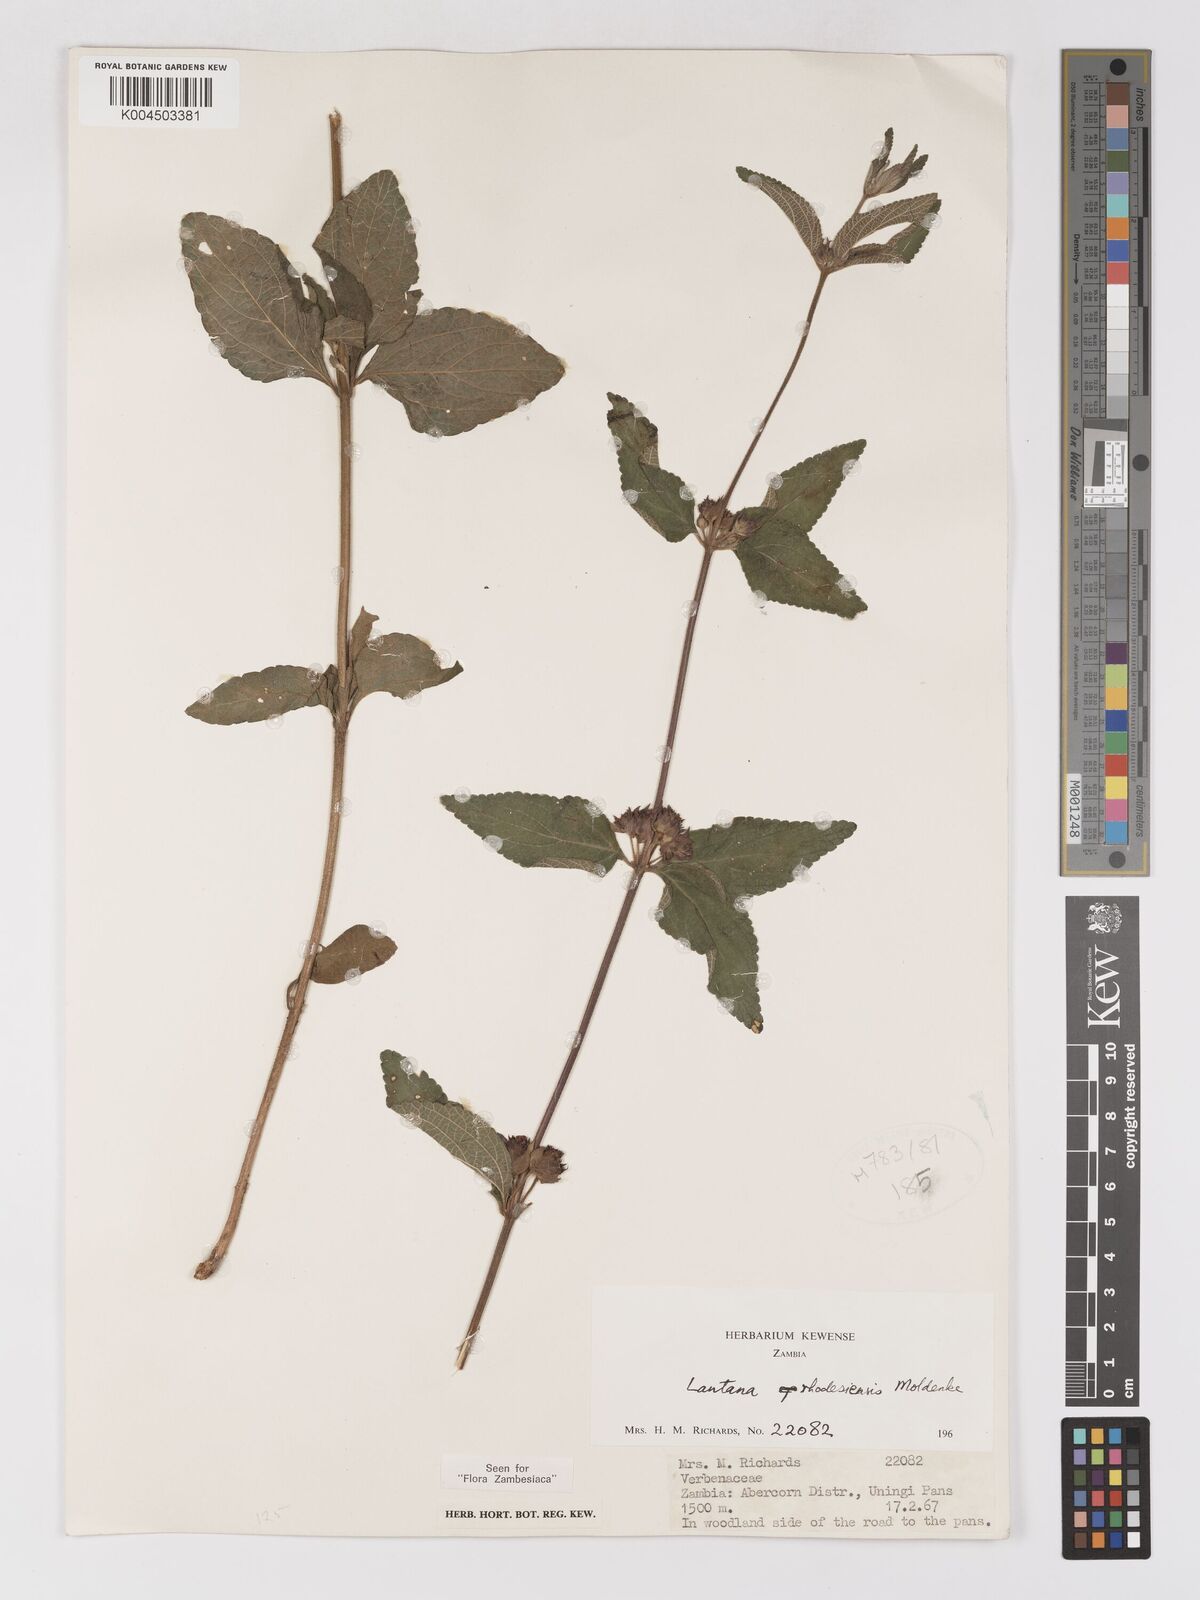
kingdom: Plantae
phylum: Tracheophyta
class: Magnoliopsida
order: Lamiales
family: Verbenaceae
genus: Lantana
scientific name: Lantana ukambensis
